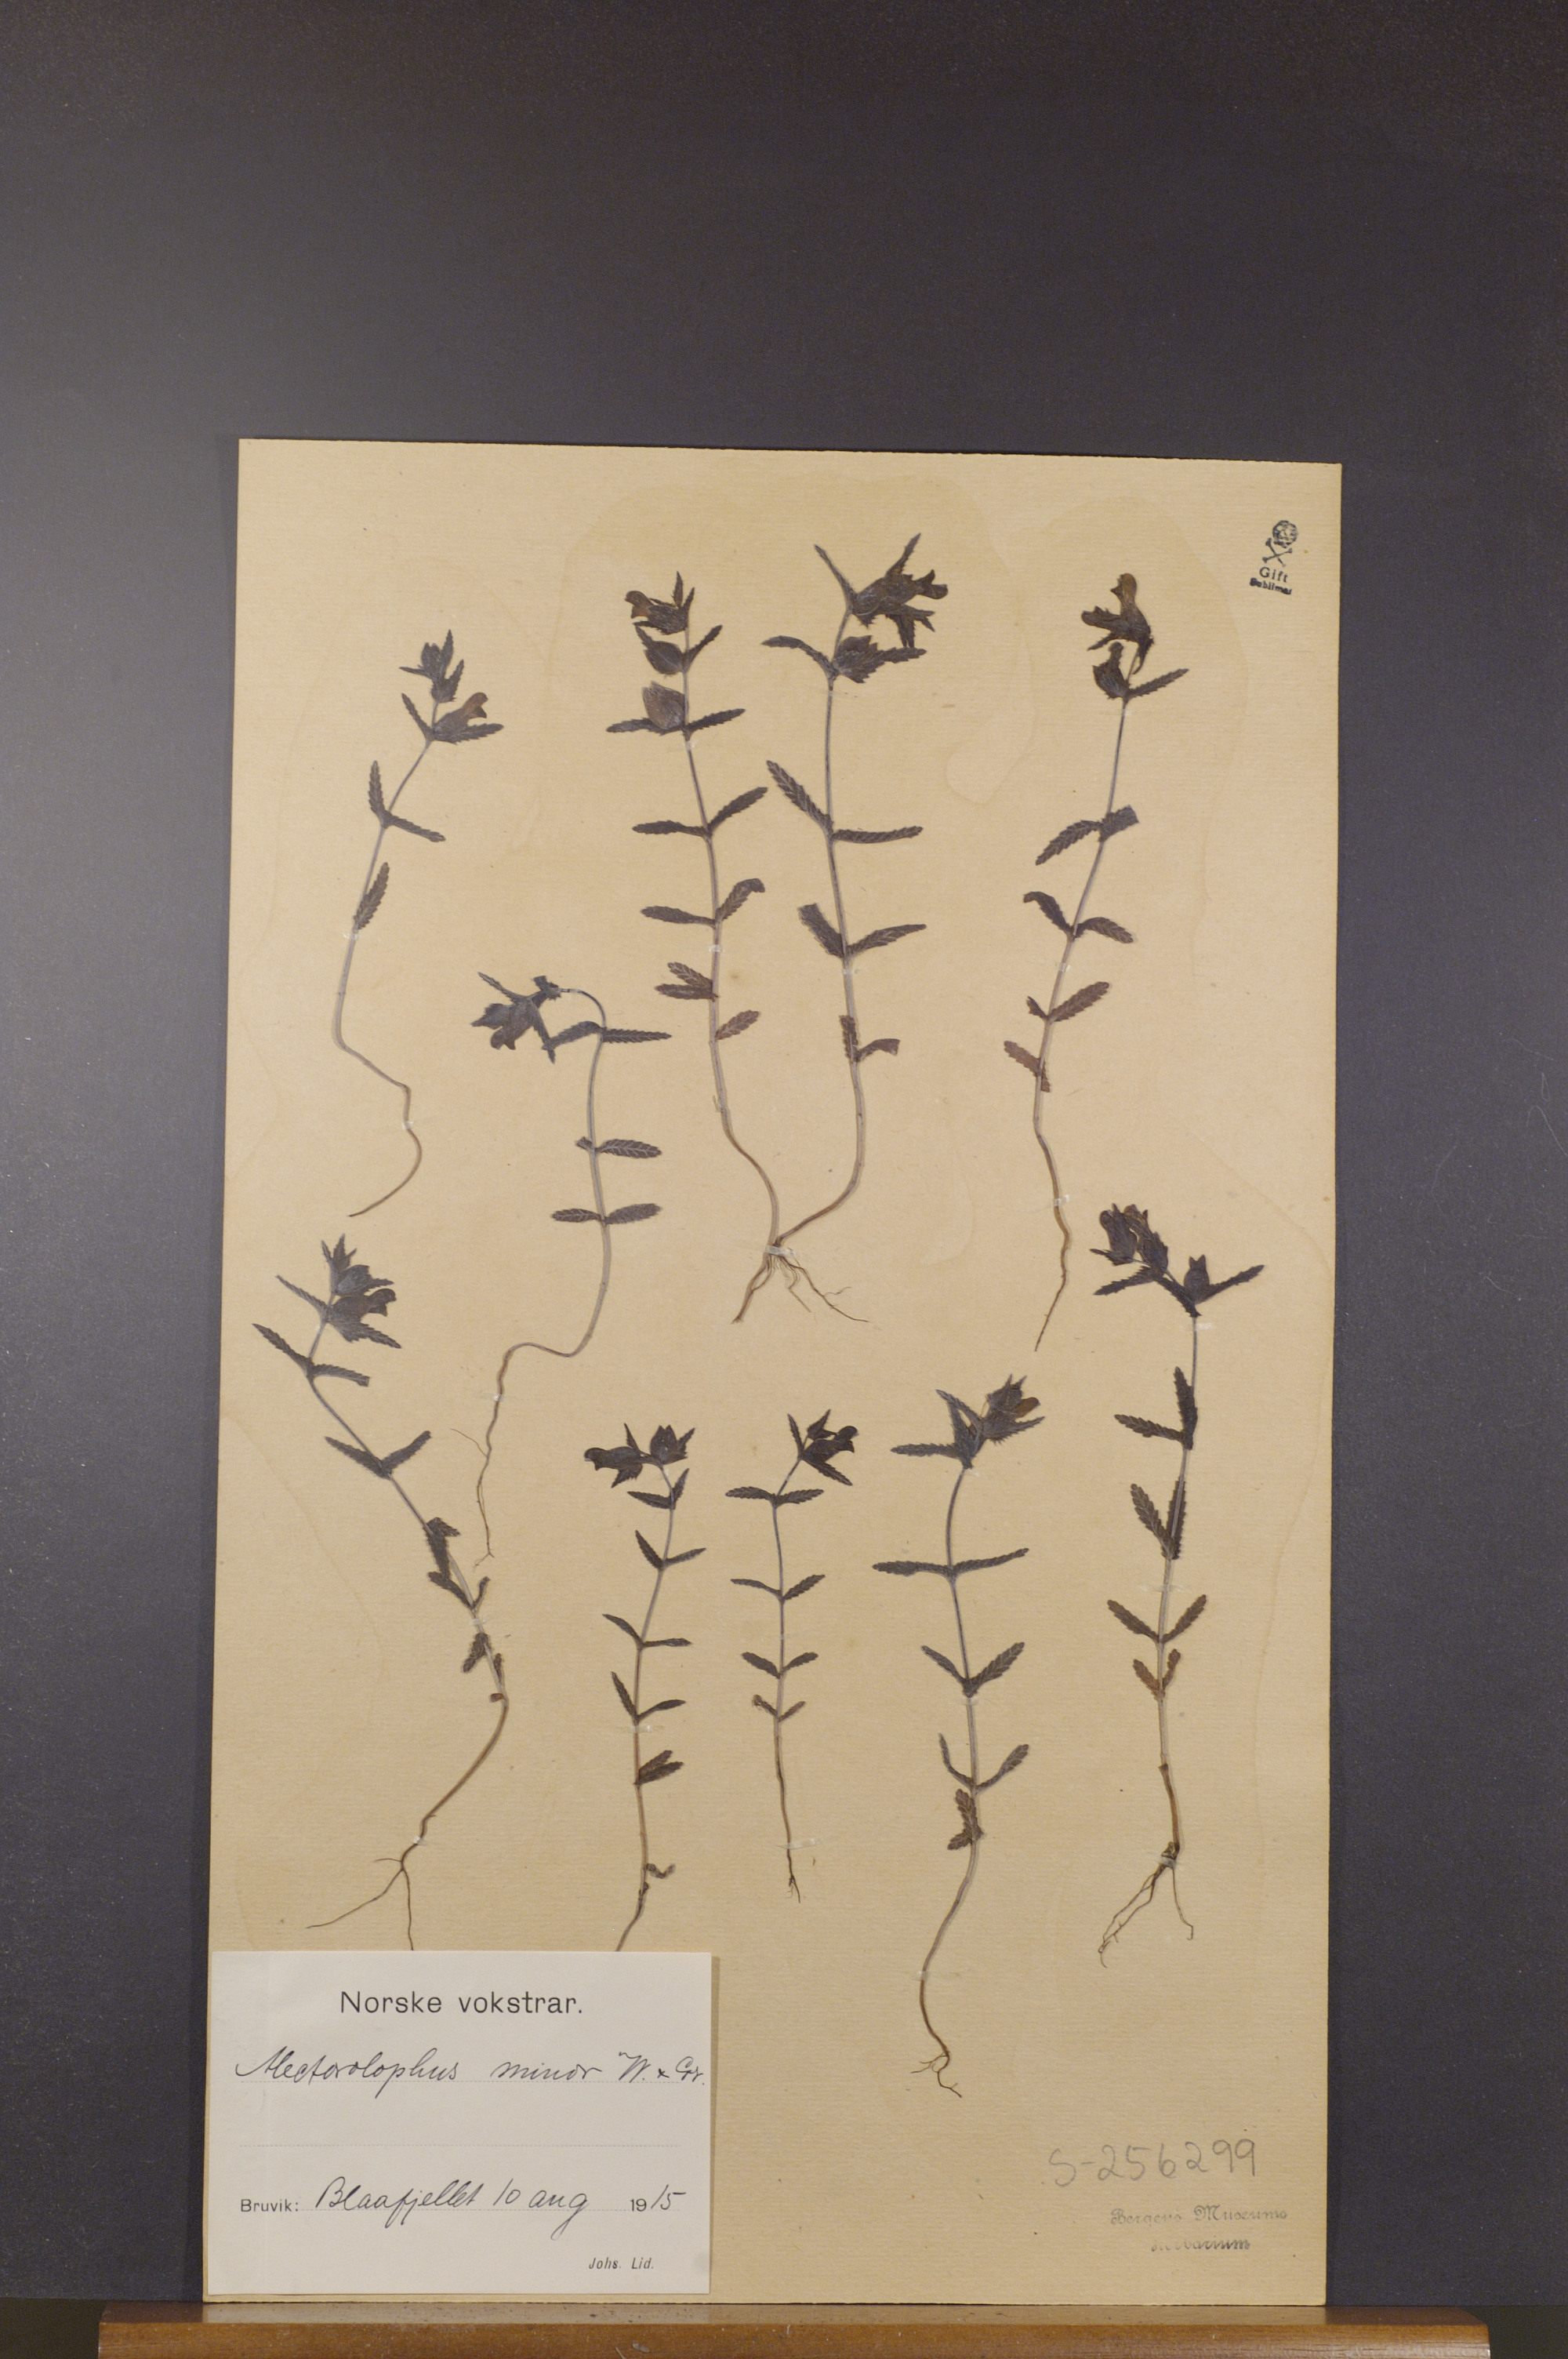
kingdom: Plantae
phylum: Tracheophyta
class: Magnoliopsida
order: Lamiales
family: Orobanchaceae
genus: Rhinanthus
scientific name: Rhinanthus minor
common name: Yellow-rattle
